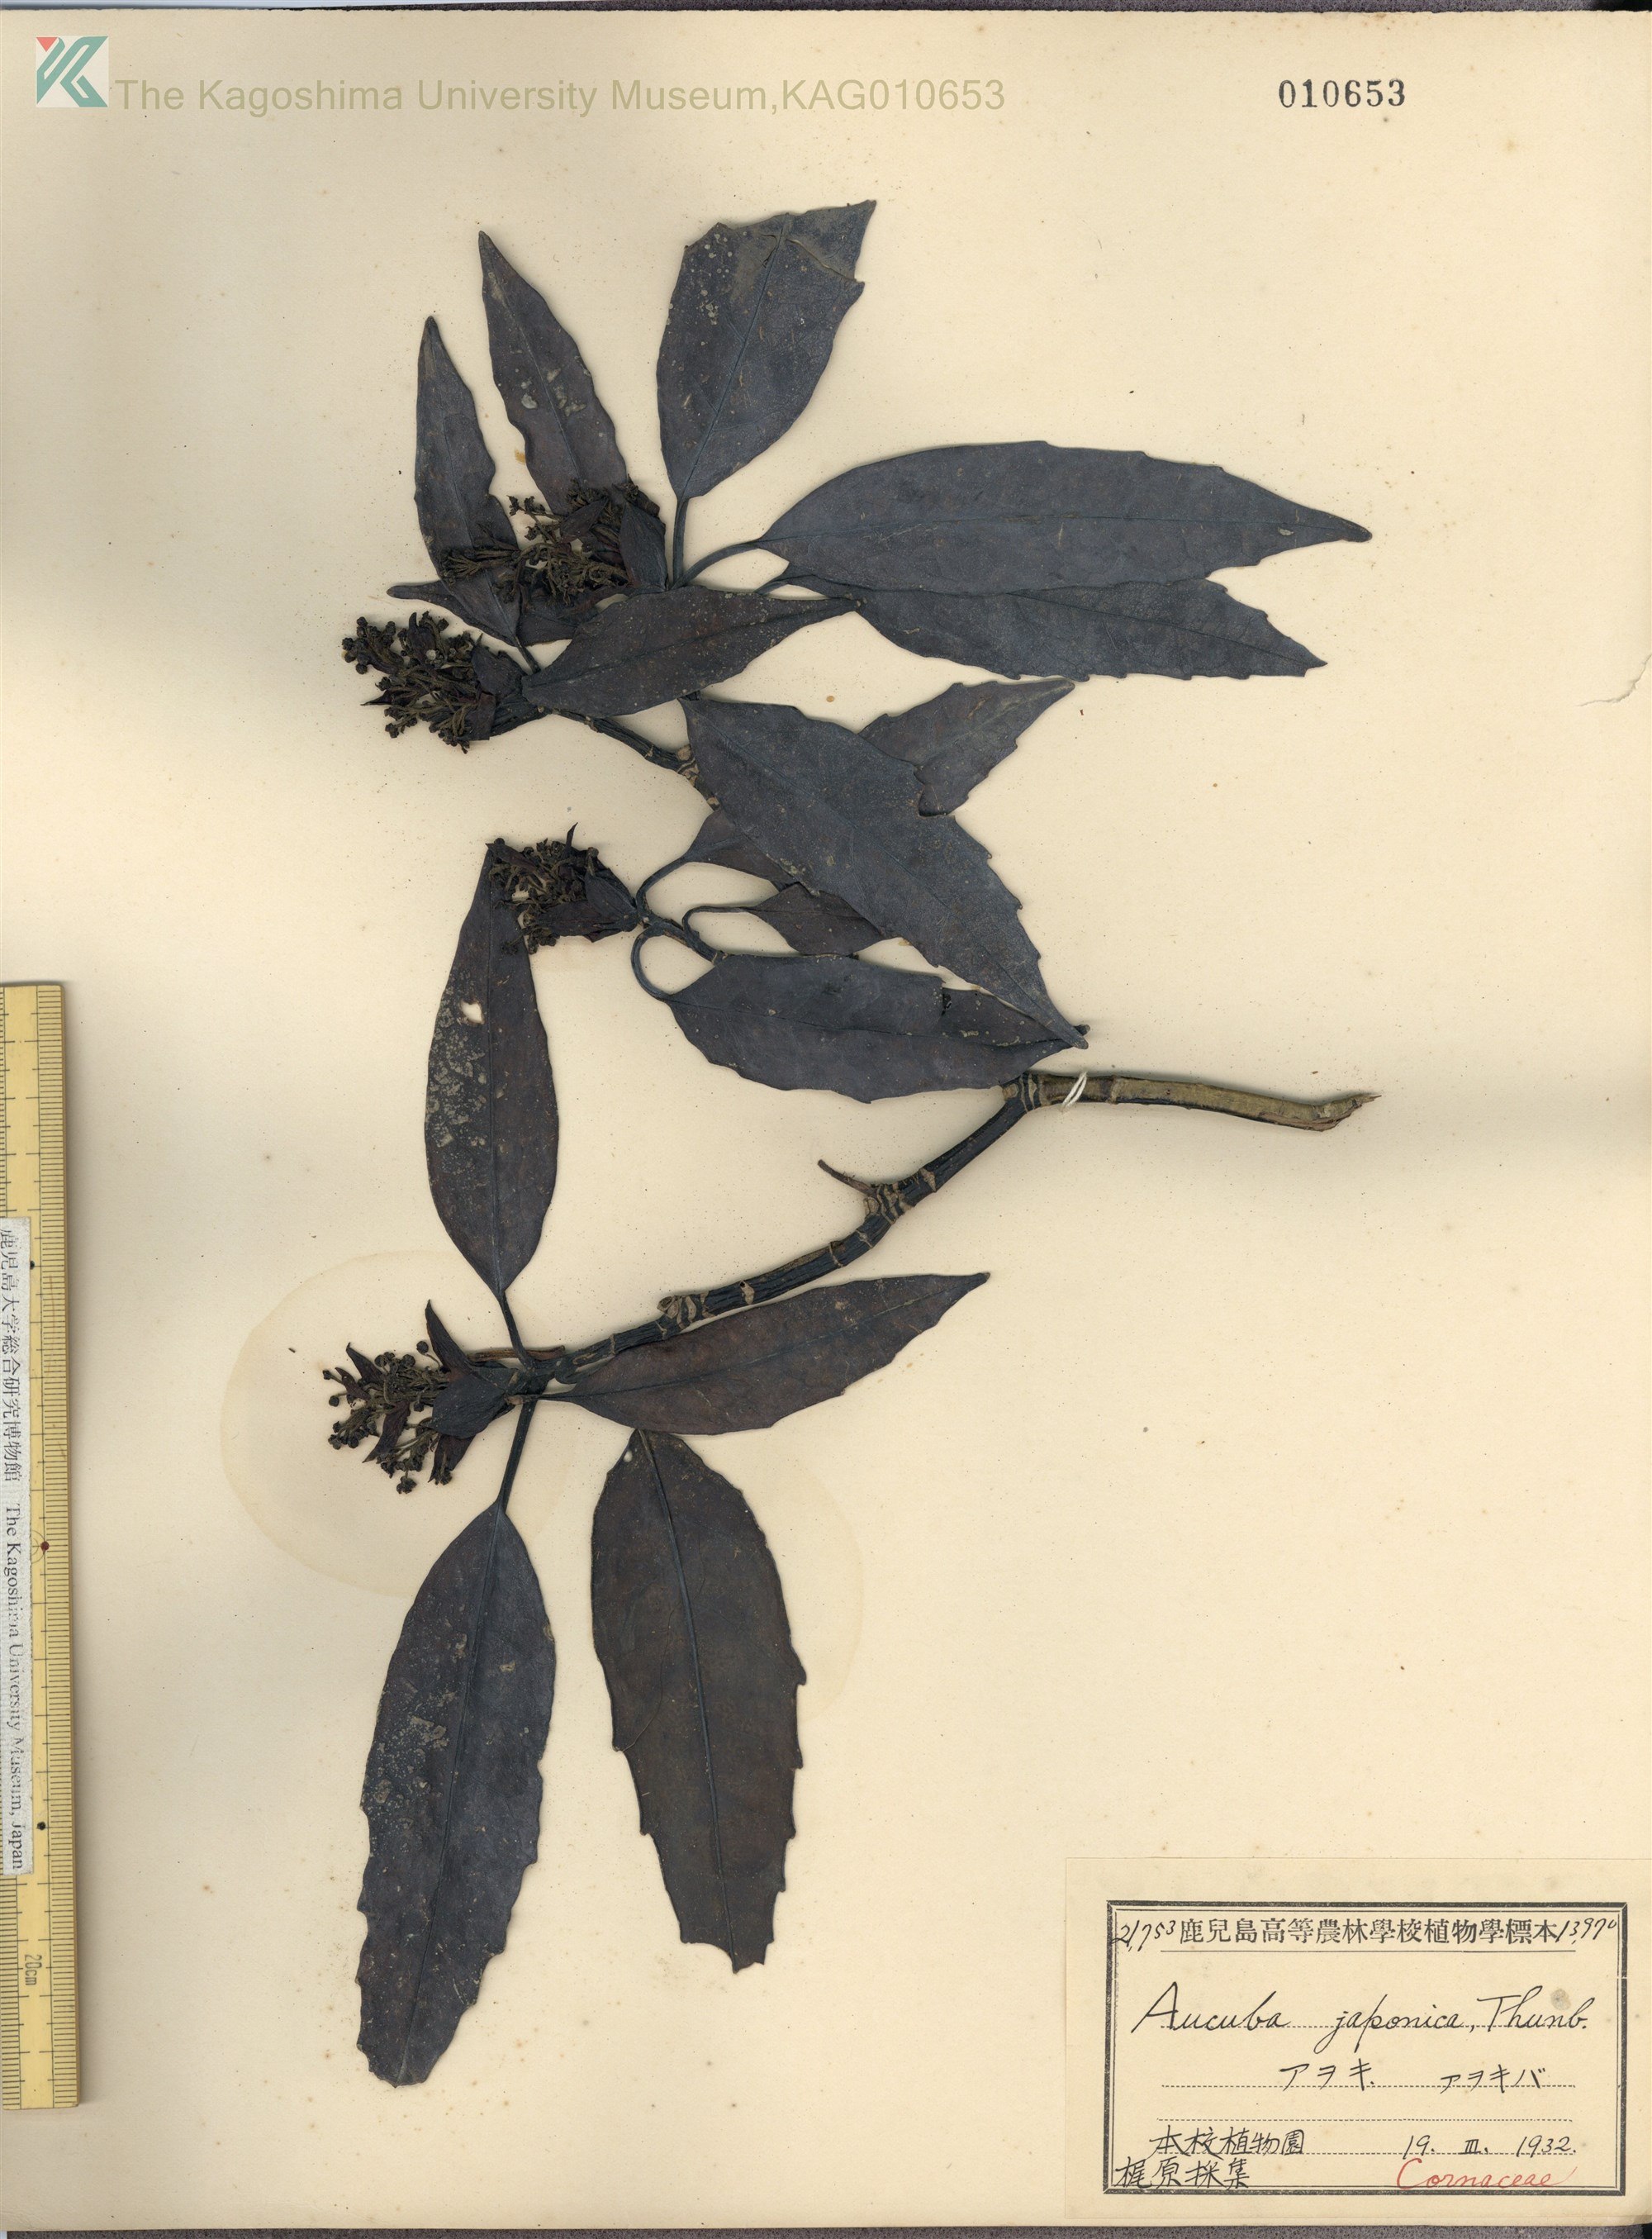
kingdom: Plantae
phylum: Tracheophyta
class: Magnoliopsida
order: Garryales
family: Garryaceae
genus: Aucuba
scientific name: Aucuba japonica
